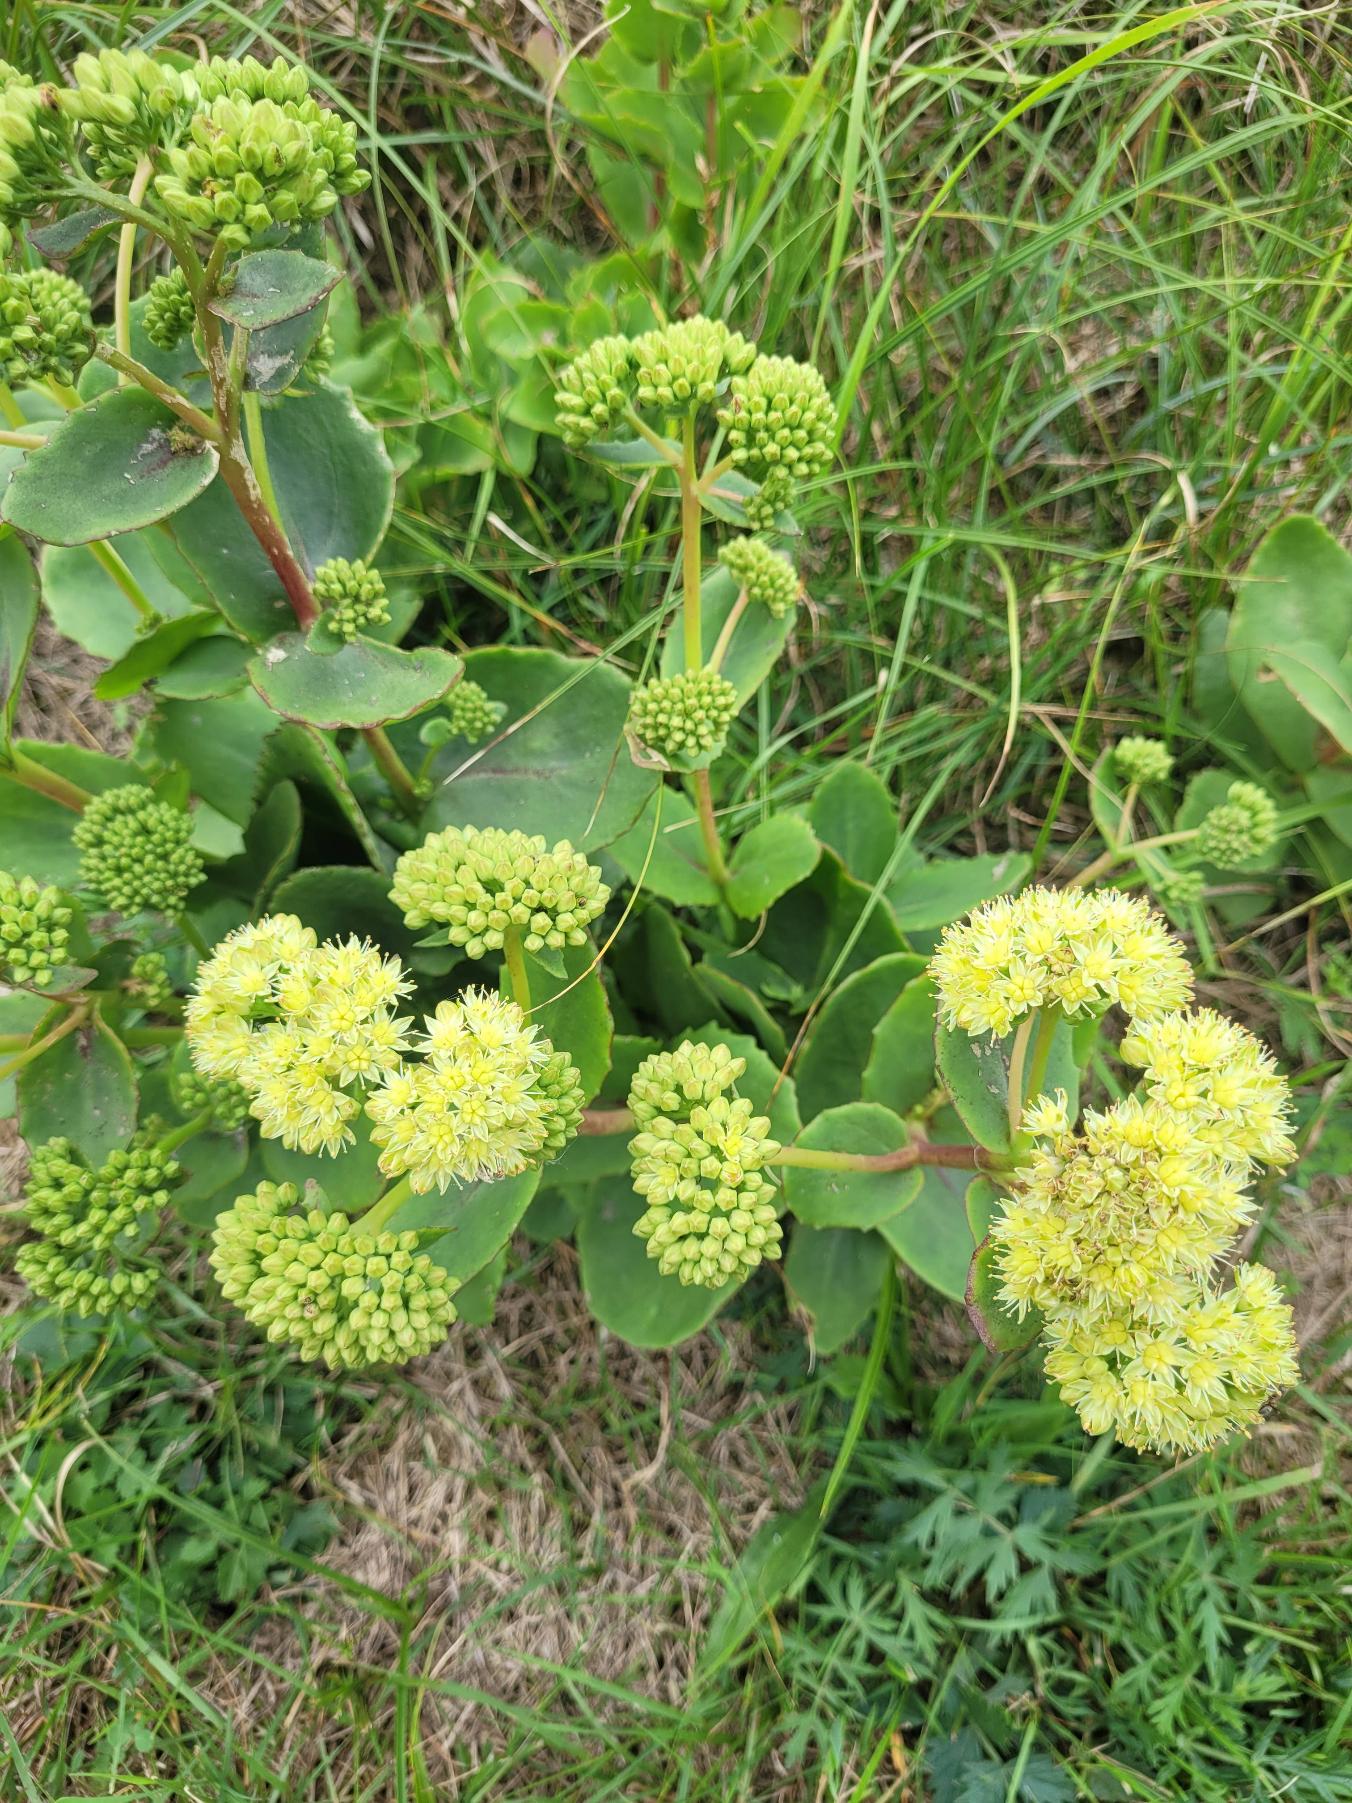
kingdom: Plantae
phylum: Tracheophyta
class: Magnoliopsida
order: Saxifragales
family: Crassulaceae
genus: Hylotelephium
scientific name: Hylotelephium maximum
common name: Almindelig sankthansurt
